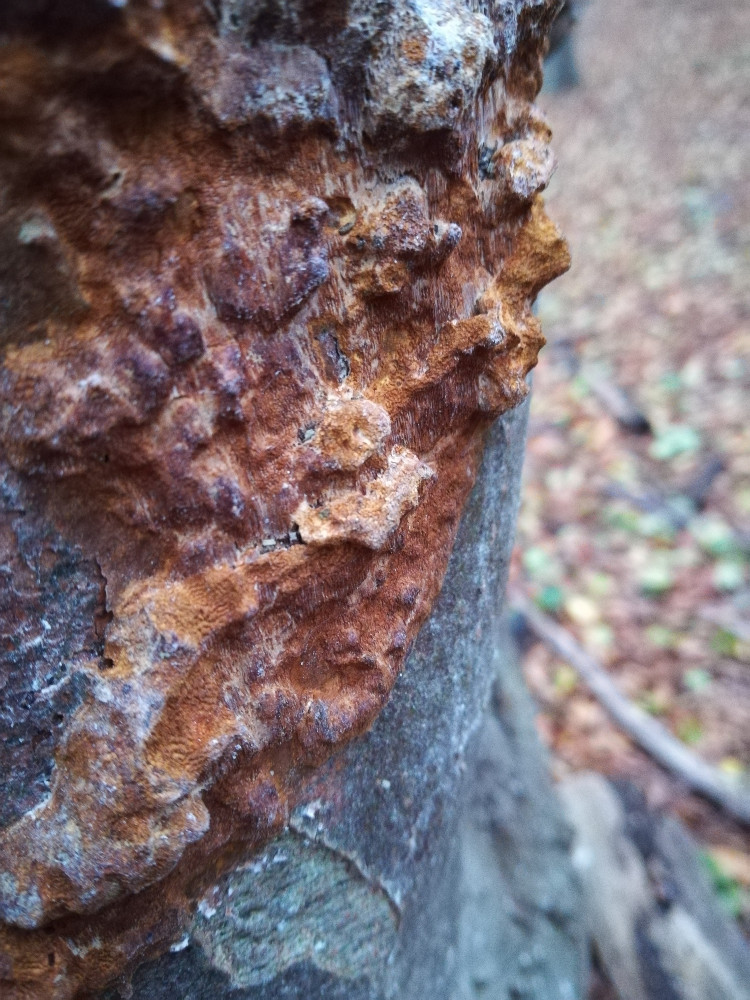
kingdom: Fungi
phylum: Basidiomycota
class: Agaricomycetes
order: Hymenochaetales
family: Hymenochaetaceae
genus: Mensularia
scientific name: Mensularia nodulosa
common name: bøge-spejlporesvamp
